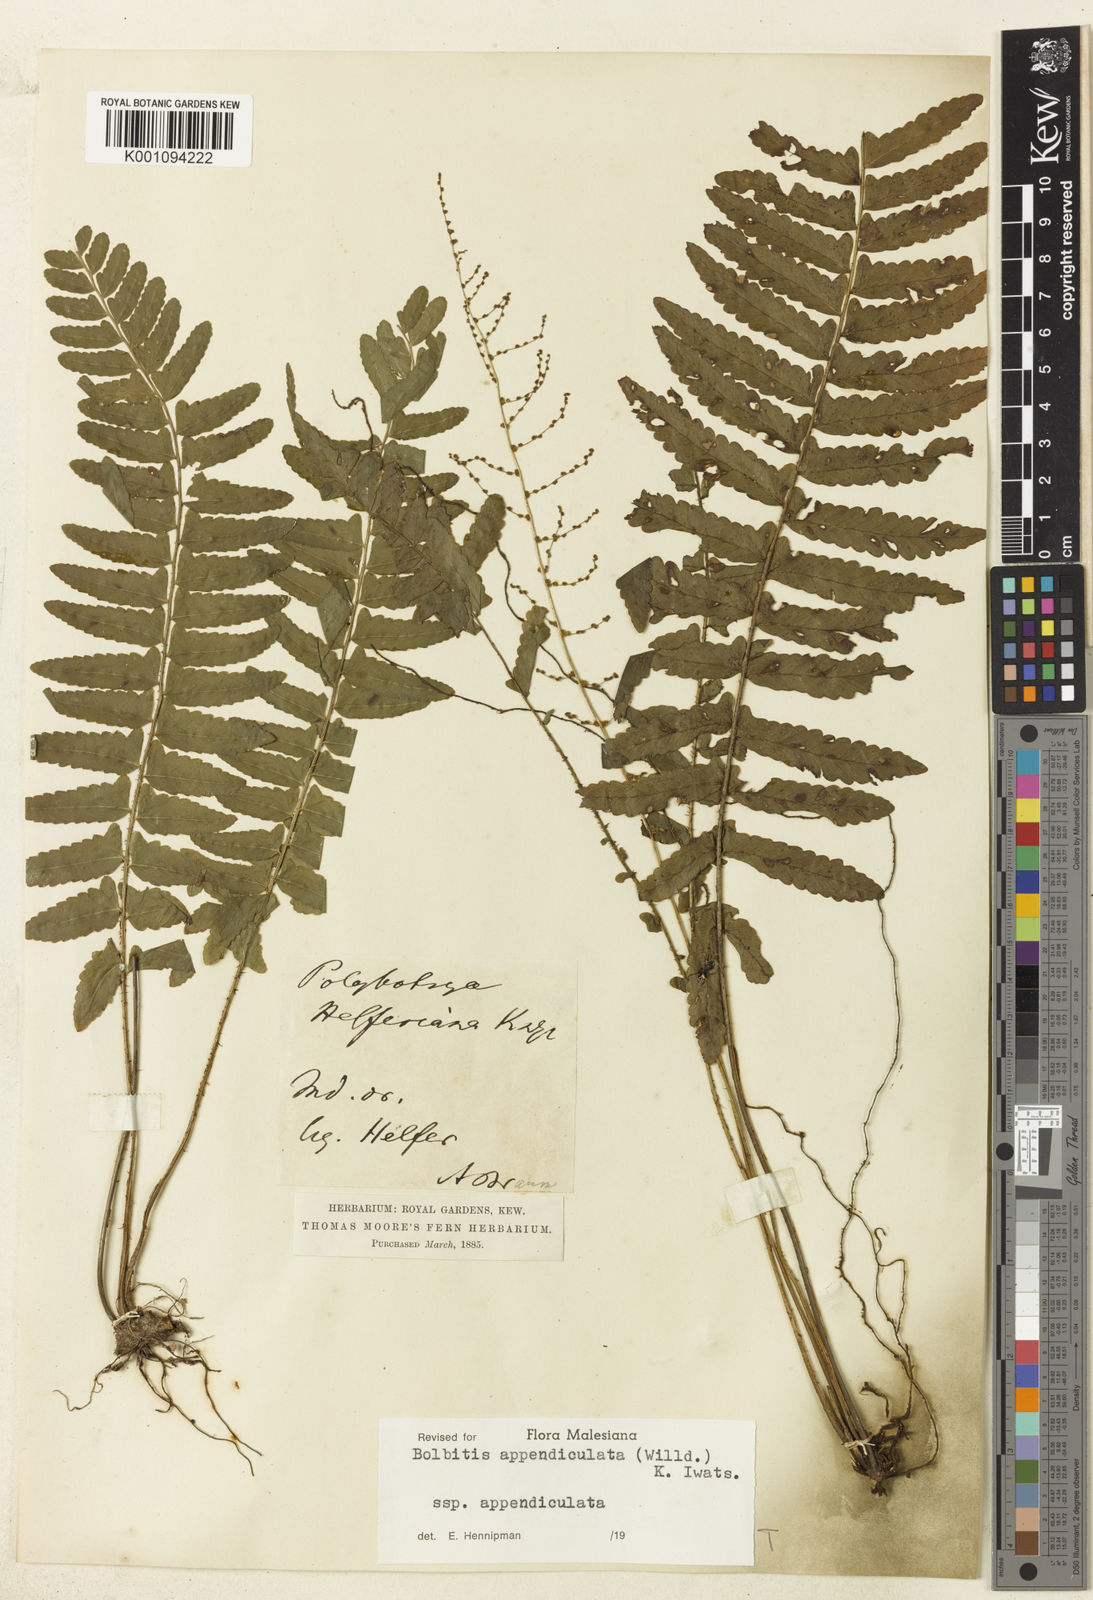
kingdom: Plantae
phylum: Tracheophyta
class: Polypodiopsida
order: Polypodiales
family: Dryopteridaceae
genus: Bolbitis
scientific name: Bolbitis appendiculata
